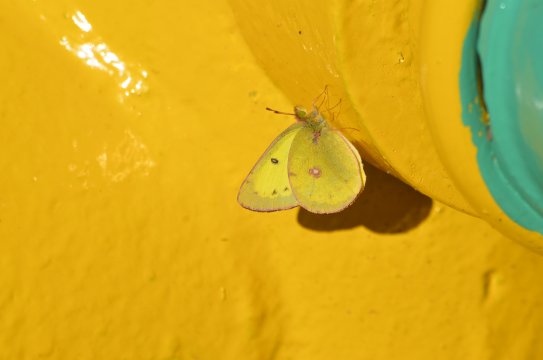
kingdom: Animalia
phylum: Arthropoda
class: Insecta
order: Lepidoptera
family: Pieridae
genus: Colias
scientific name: Colias philodice
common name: Clouded Sulphur
